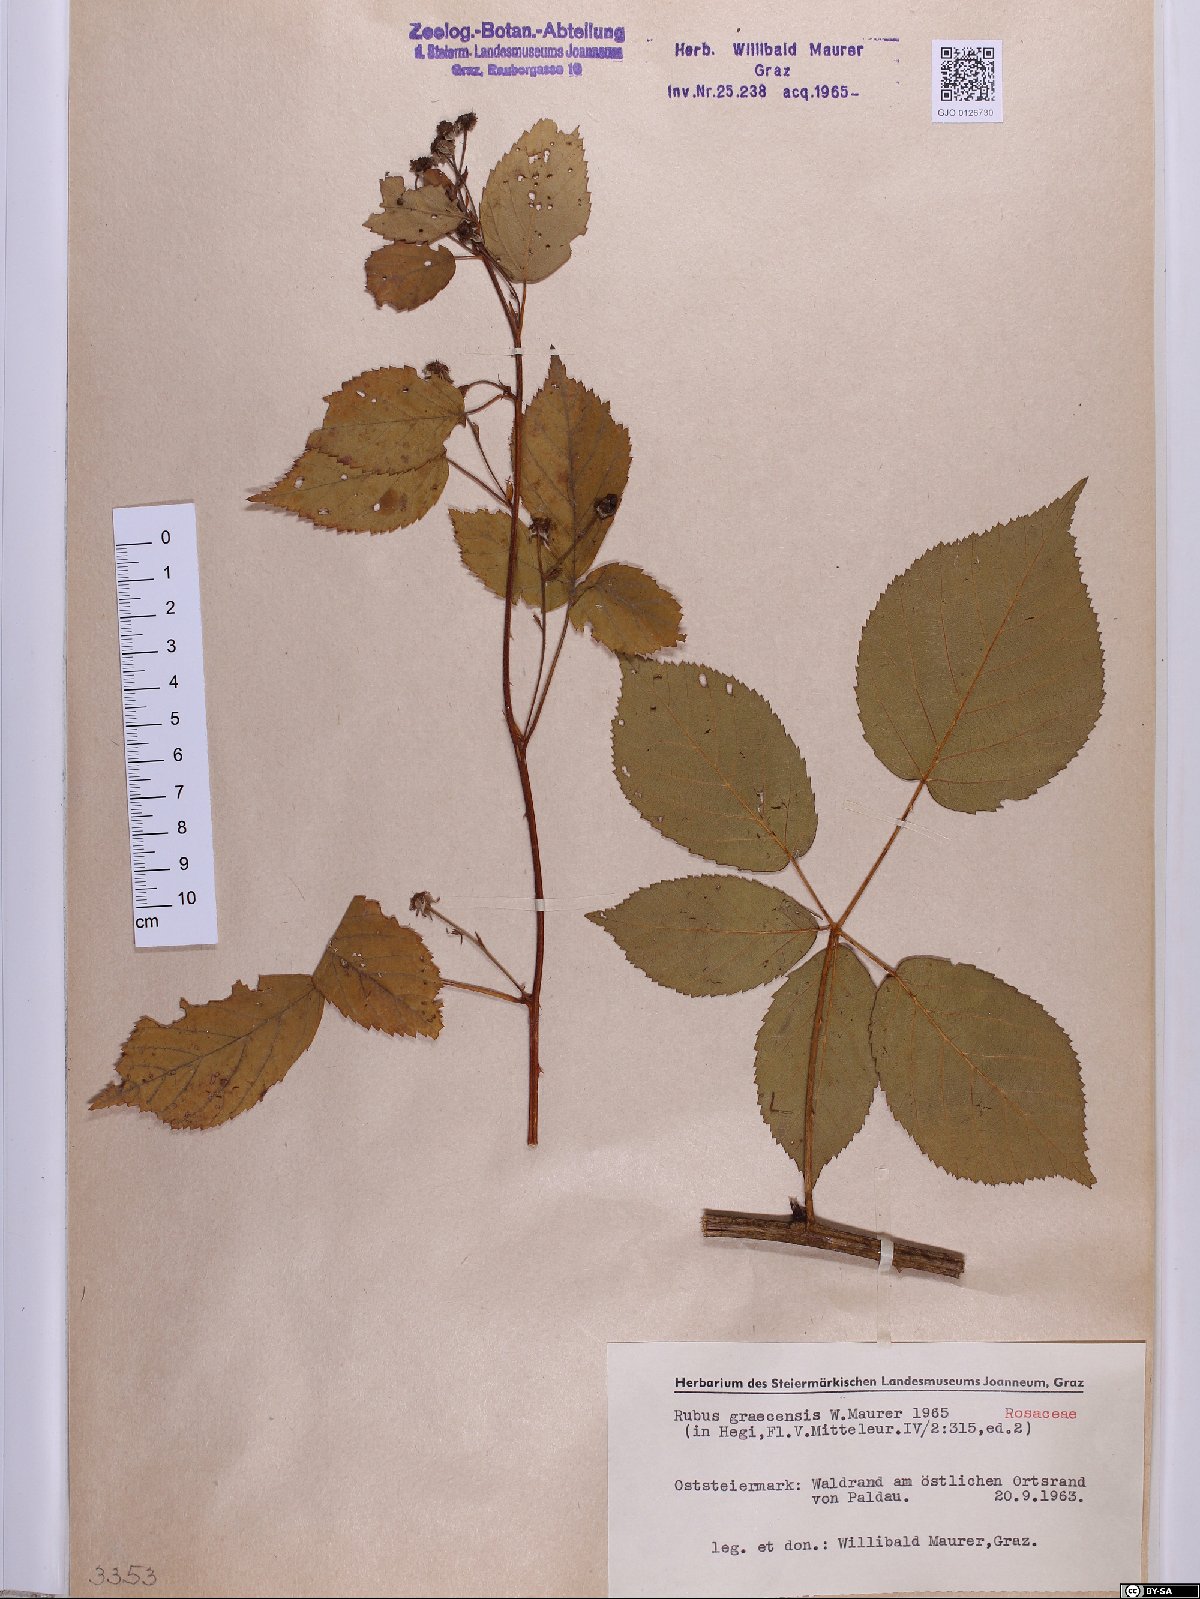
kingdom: Plantae
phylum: Tracheophyta
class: Magnoliopsida
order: Rosales
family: Rosaceae
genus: Rubus
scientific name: Rubus graecensis
